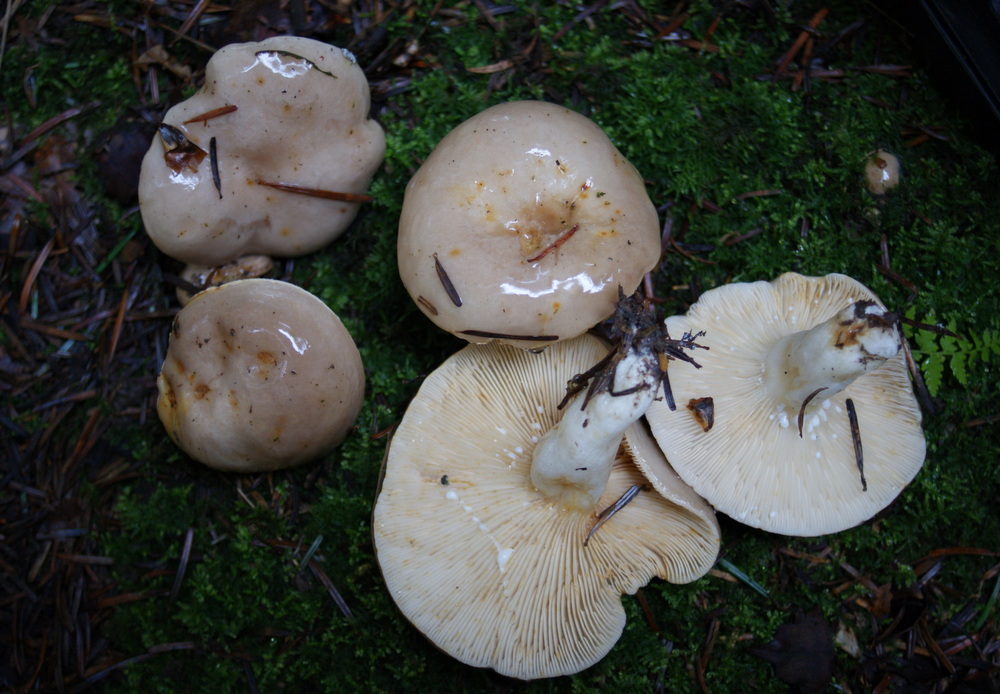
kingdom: Fungi
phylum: Basidiomycota
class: Agaricomycetes
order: Russulales
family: Russulaceae
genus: Lactarius
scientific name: Lactarius albocarneus
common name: ædelgran-mælkehat
